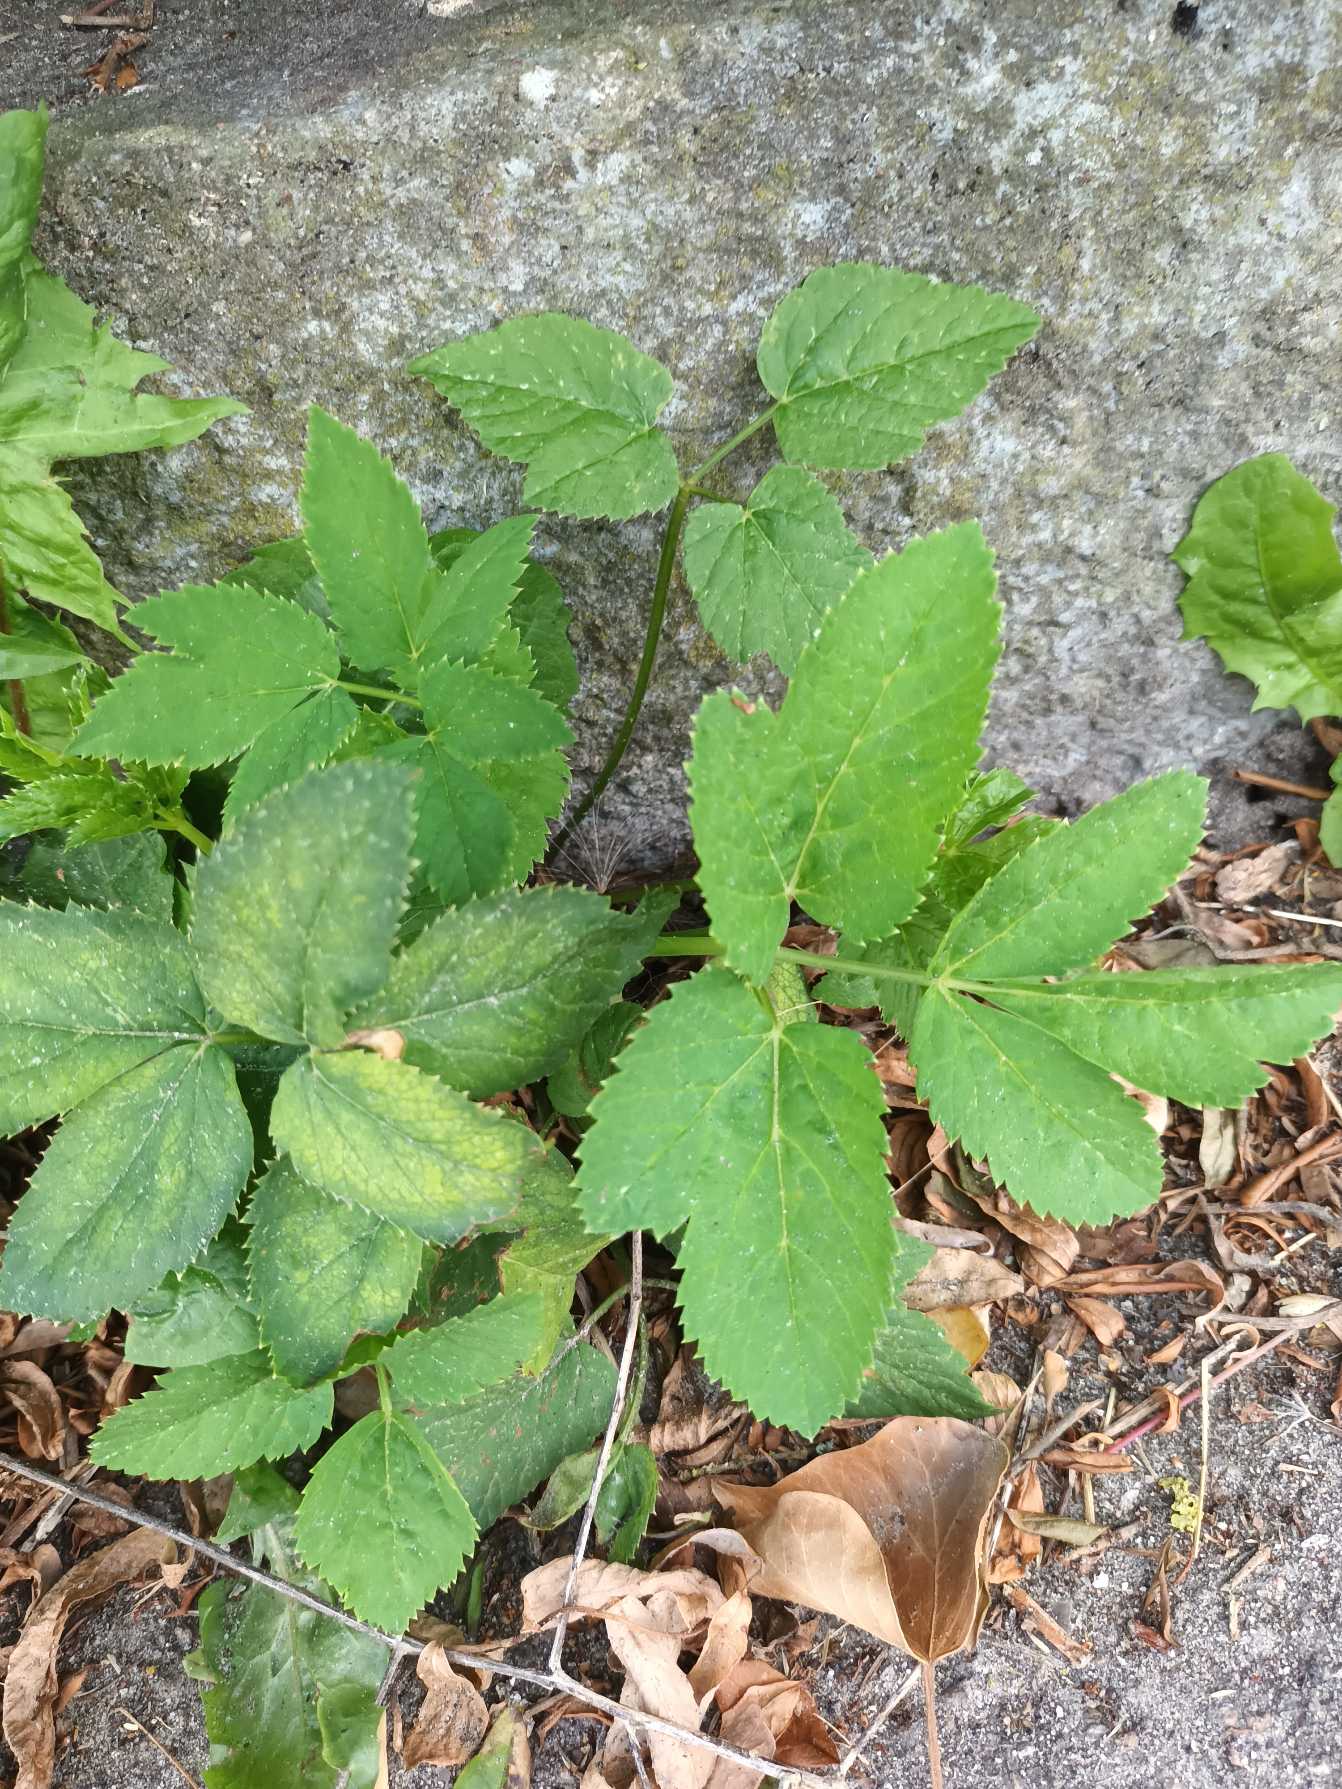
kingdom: Plantae
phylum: Tracheophyta
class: Magnoliopsida
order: Apiales
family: Apiaceae
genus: Aegopodium
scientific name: Aegopodium podagraria
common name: Skvalderkål
